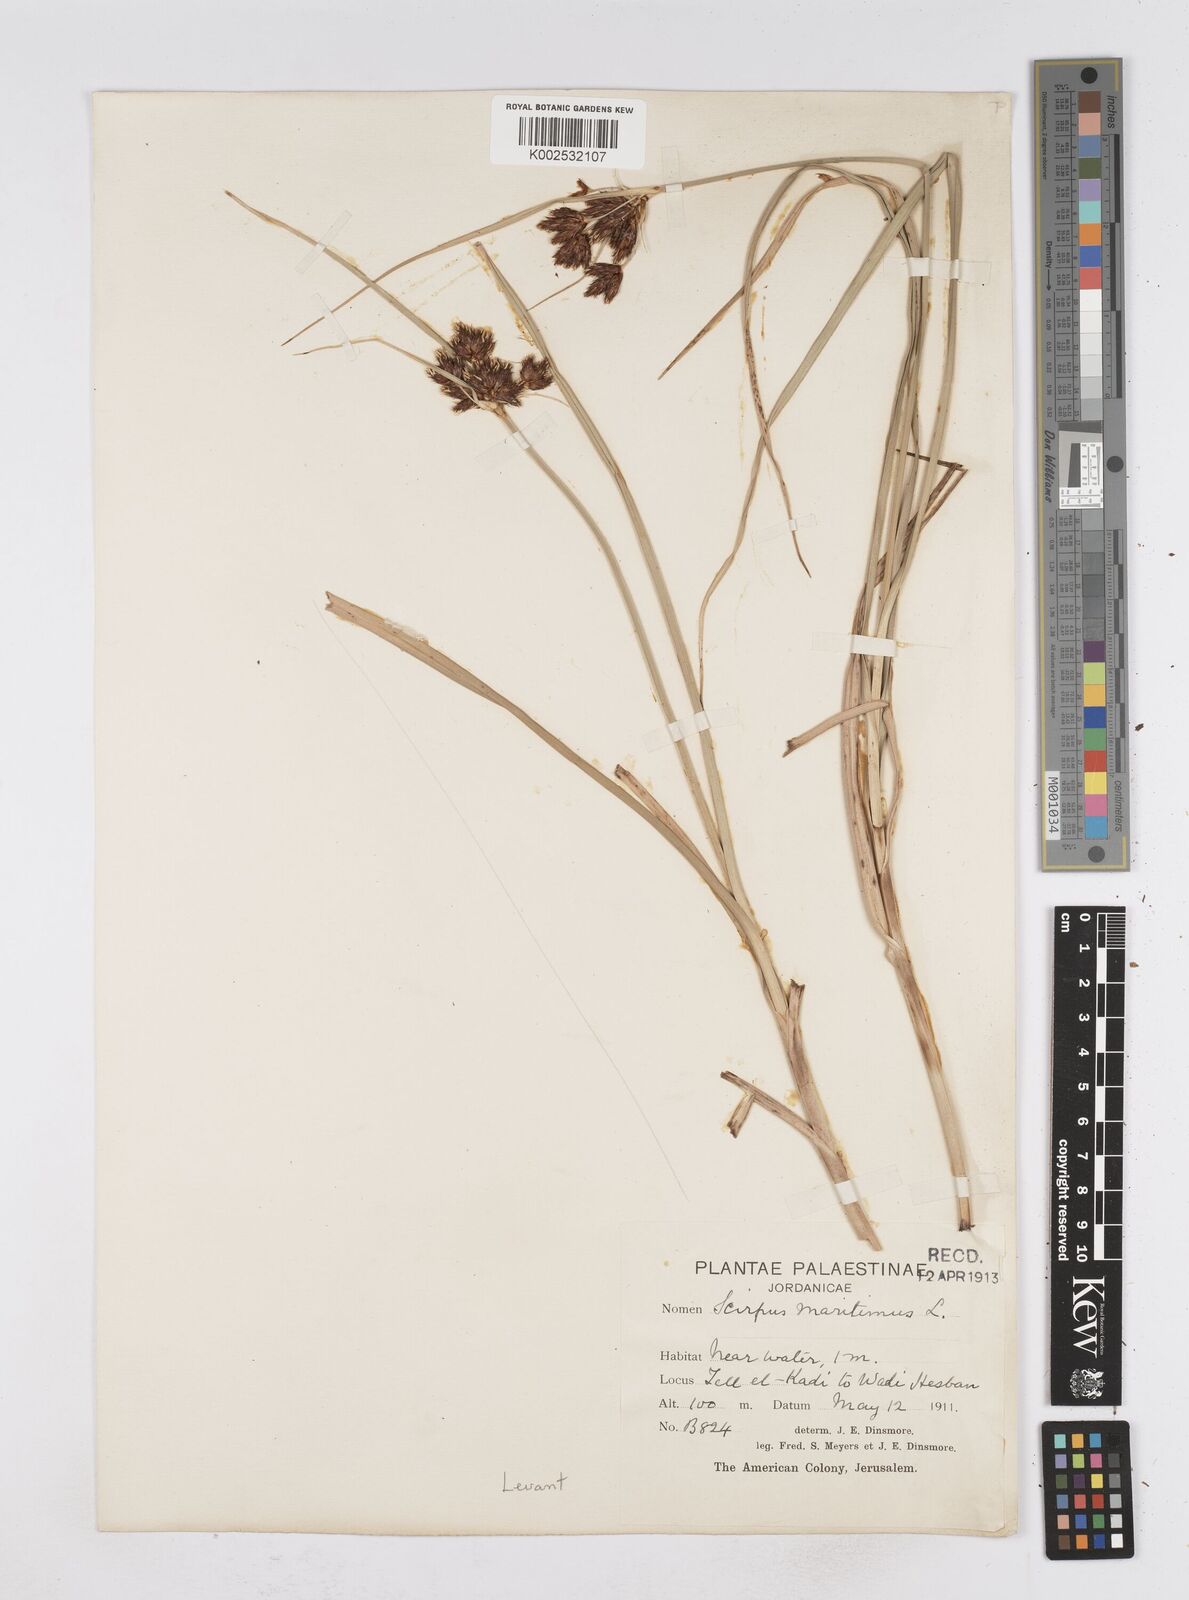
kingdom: Plantae
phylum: Tracheophyta
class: Liliopsida
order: Poales
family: Cyperaceae
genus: Bolboschoenus
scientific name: Bolboschoenus maritimus
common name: Sea club-rush
